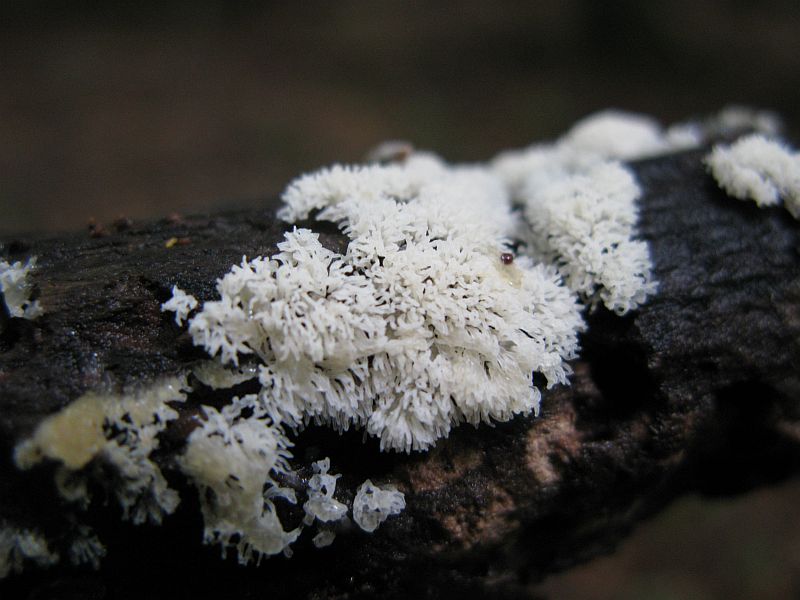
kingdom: Protozoa
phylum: Mycetozoa
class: Protosteliomycetes
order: Ceratiomyxales
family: Ceratiomyxaceae
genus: Ceratiomyxa
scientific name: Ceratiomyxa fruticulosa
